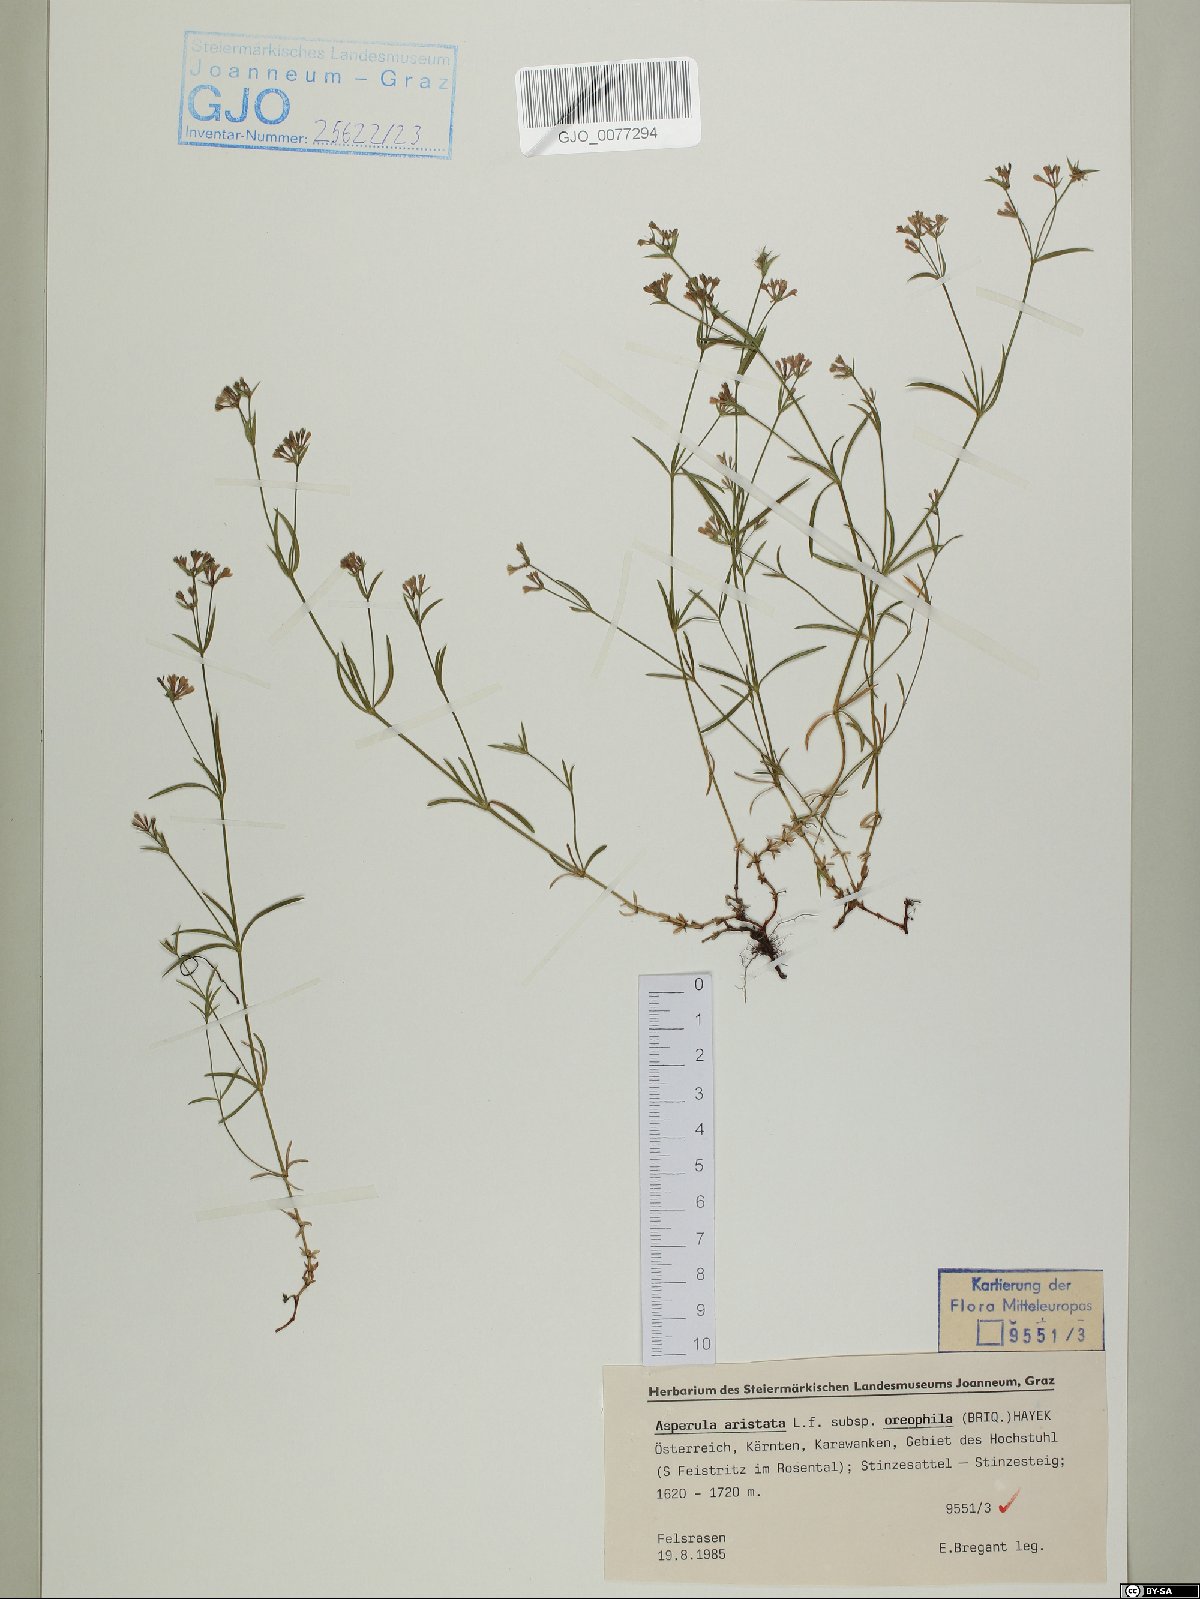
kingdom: Plantae
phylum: Tracheophyta
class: Magnoliopsida
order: Gentianales
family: Rubiaceae
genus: Cynanchica
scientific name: Cynanchica aristata
